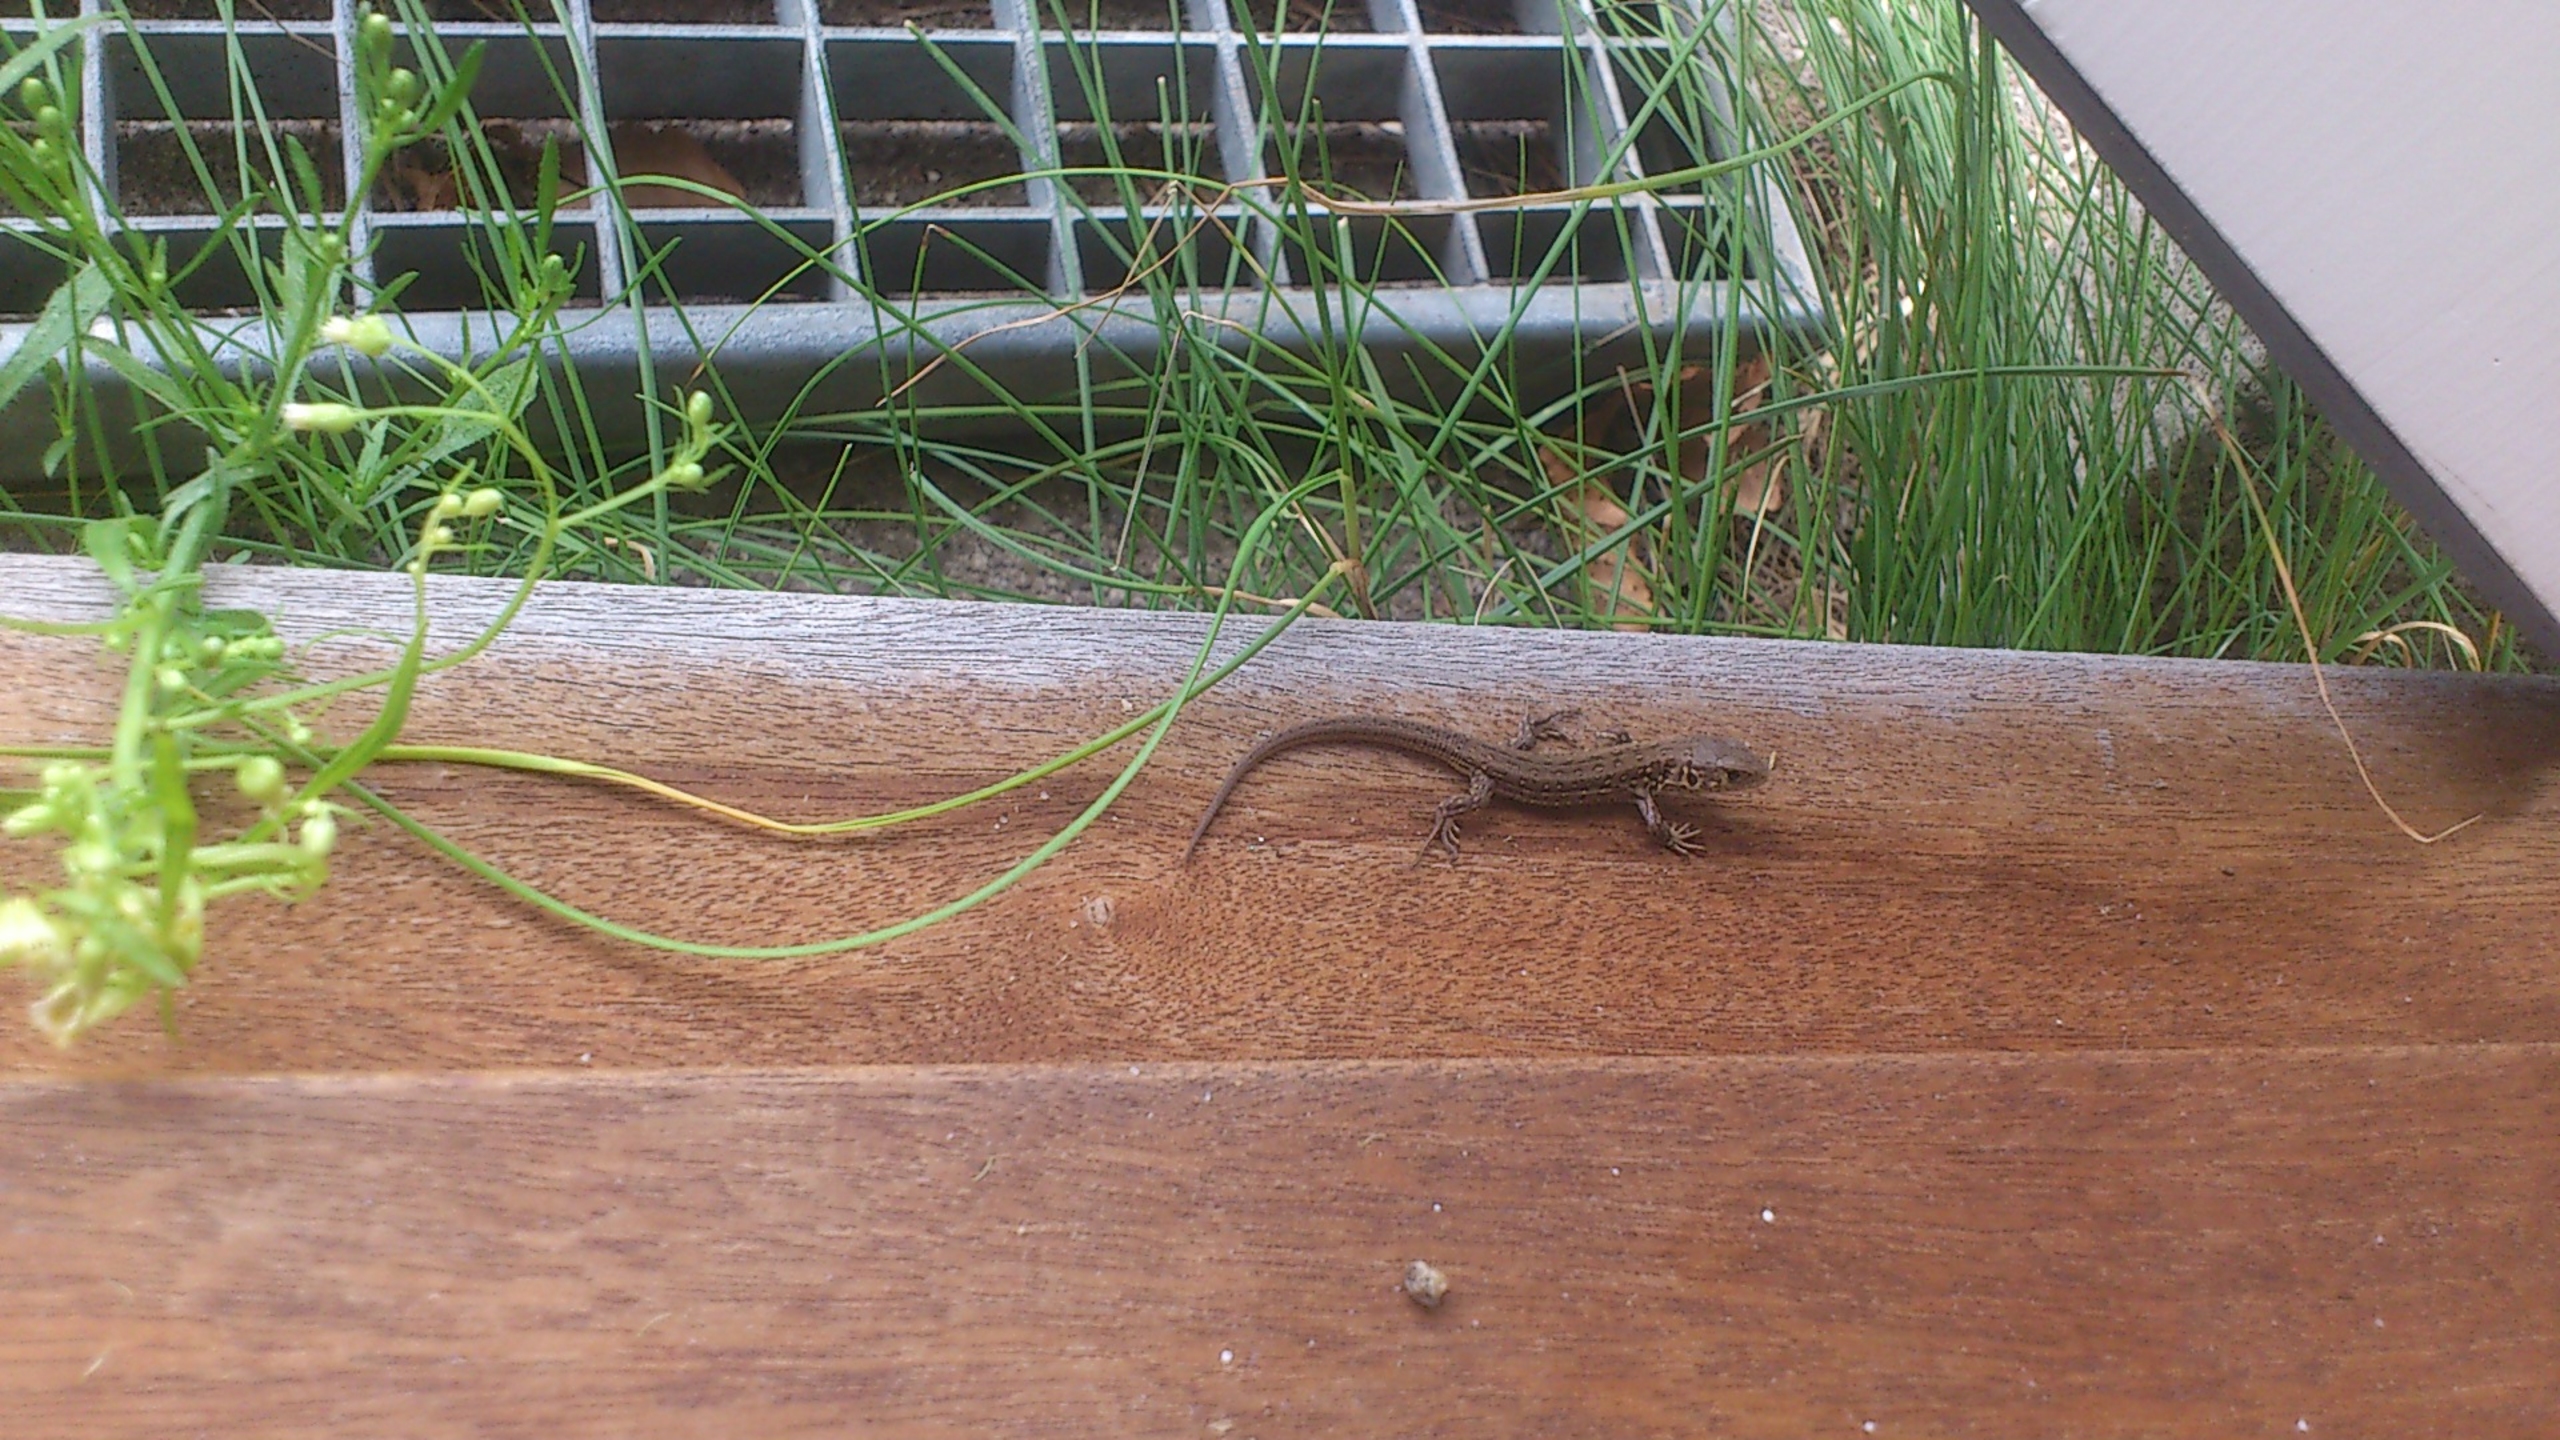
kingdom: Animalia
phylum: Chordata
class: Squamata
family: Lacertidae
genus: Lacerta
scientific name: Lacerta agilis
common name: Markfirben
